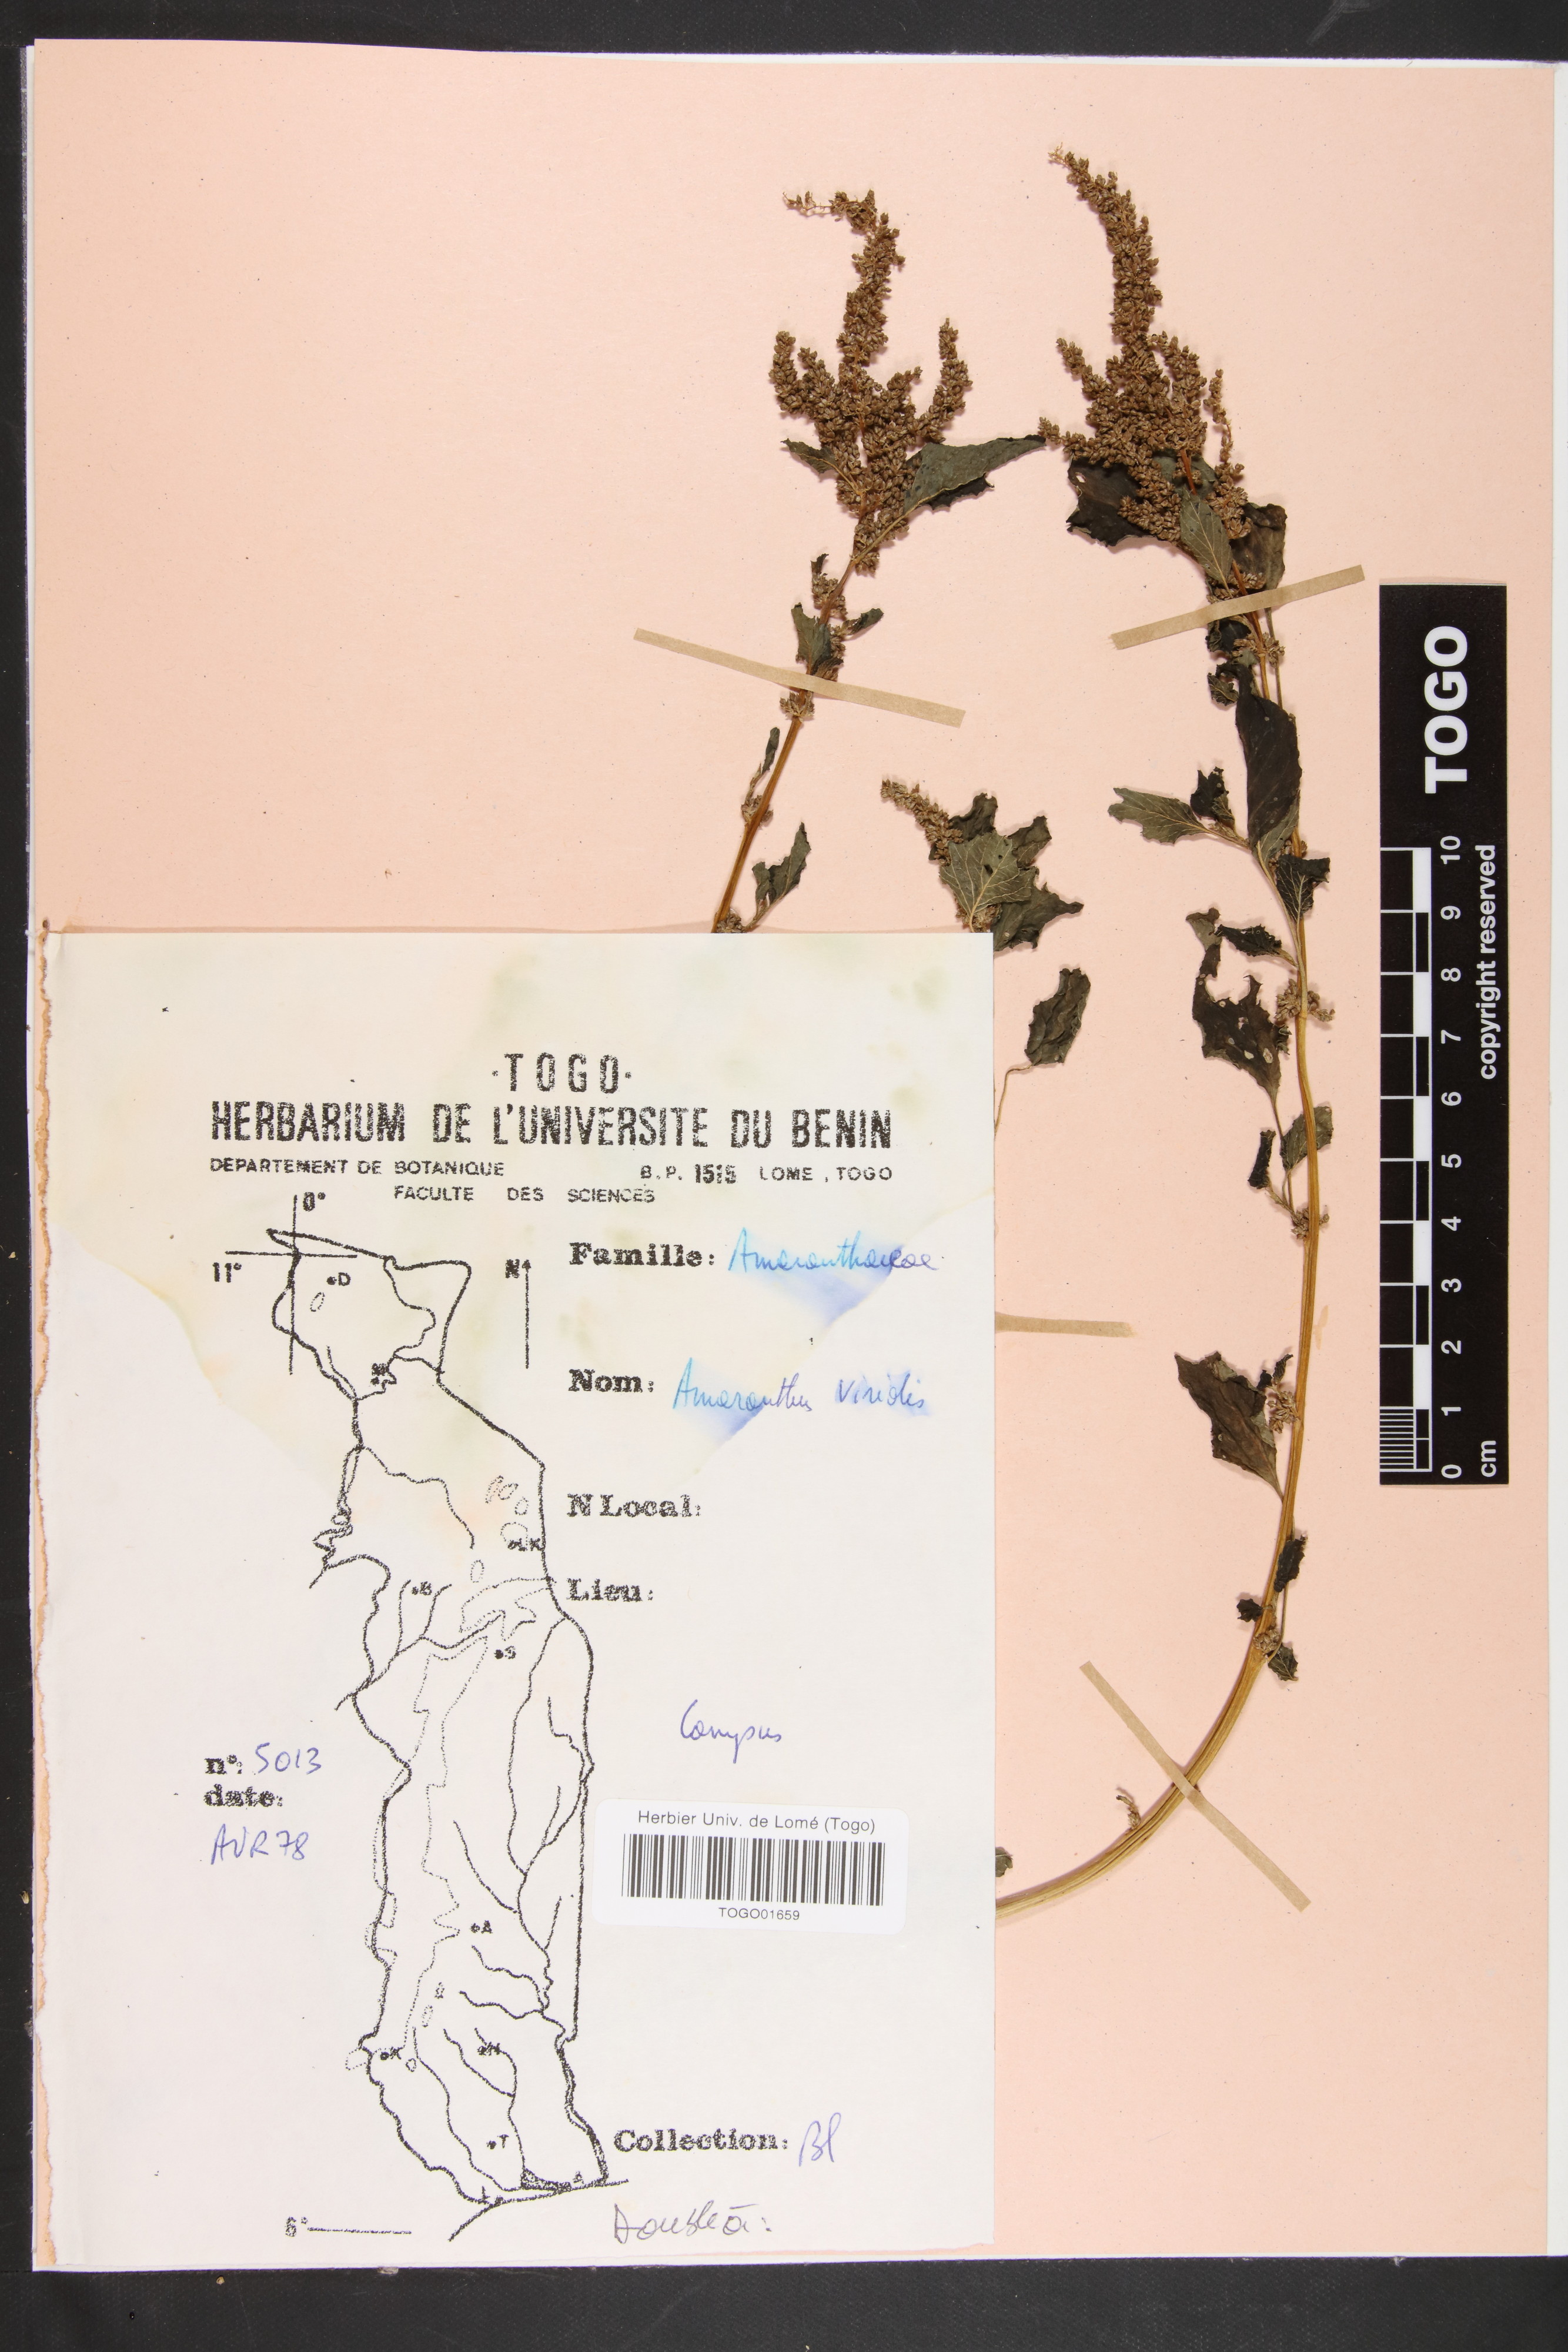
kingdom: Plantae
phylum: Tracheophyta
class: Magnoliopsida
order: Caryophyllales
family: Amaranthaceae
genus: Amaranthus
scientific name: Amaranthus viridis
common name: Slender amaranth
